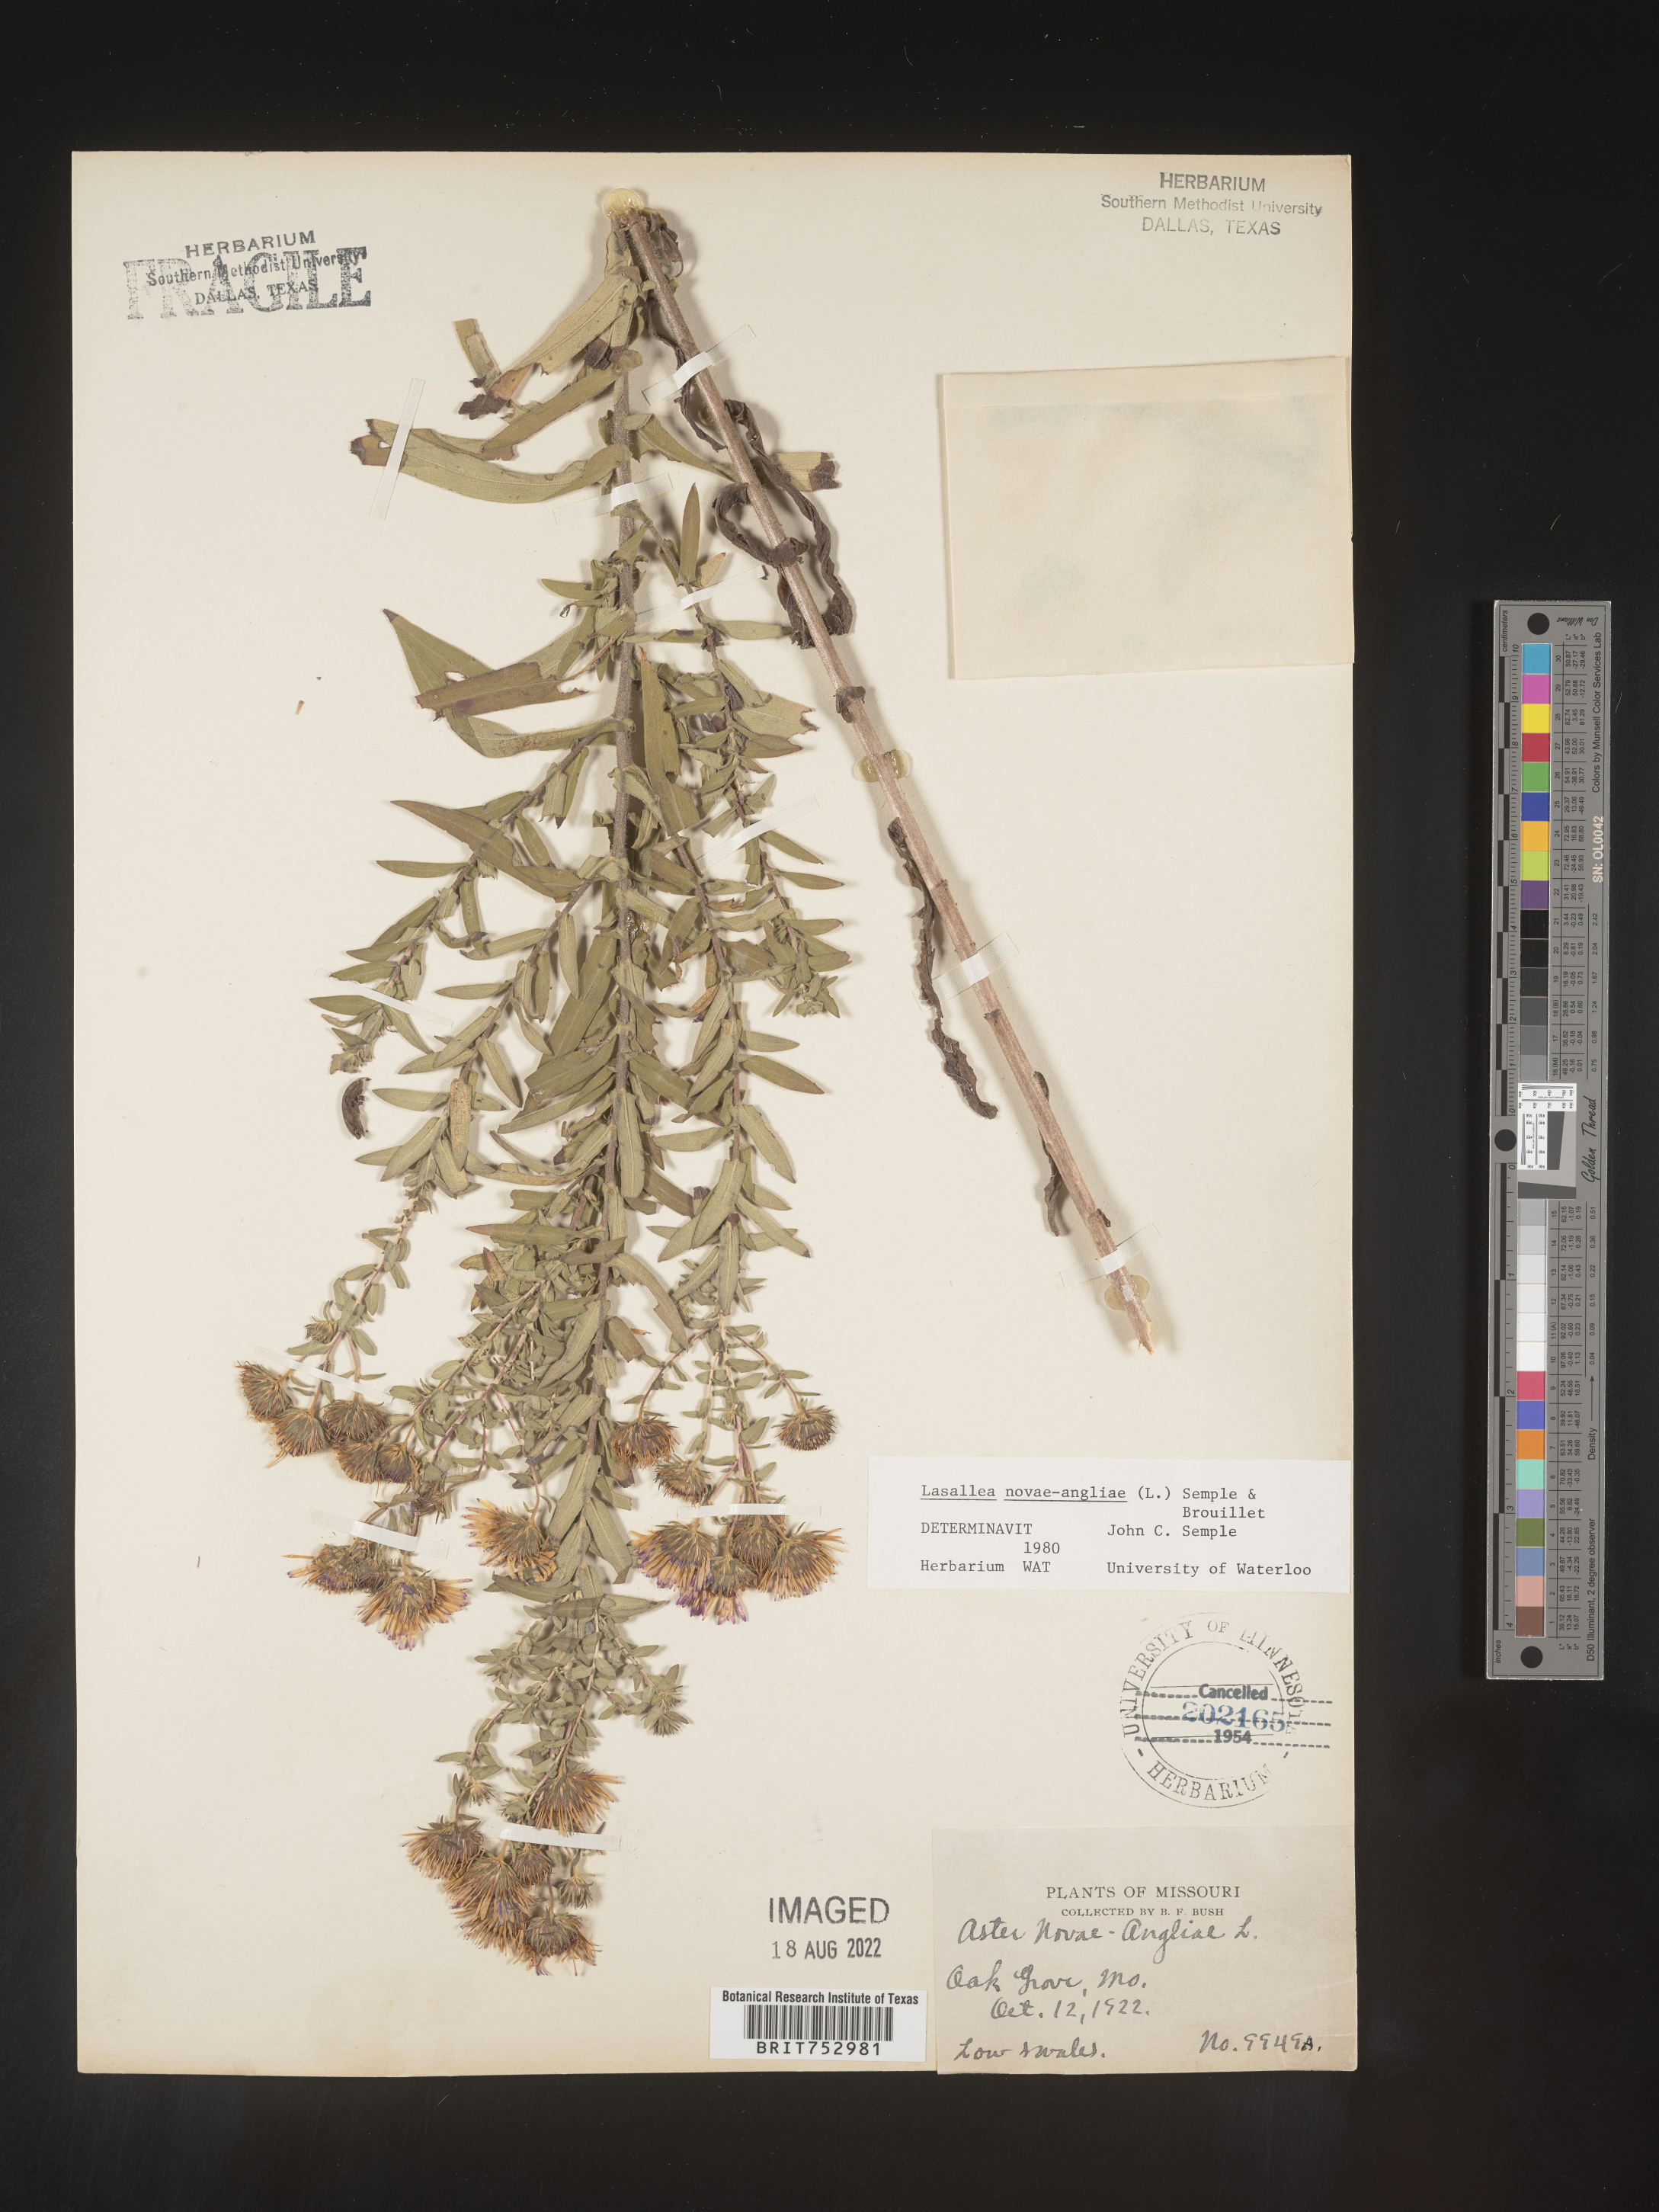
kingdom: Plantae
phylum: Tracheophyta
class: Magnoliopsida
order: Asterales
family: Asteraceae
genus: Symphyotrichum
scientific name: Symphyotrichum novae-angliae
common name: Michaelmas daisy
